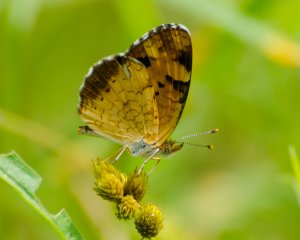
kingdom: Animalia
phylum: Arthropoda
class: Insecta
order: Lepidoptera
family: Nymphalidae
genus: Phyciodes
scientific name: Phyciodes tharos
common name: Northern Crescent
